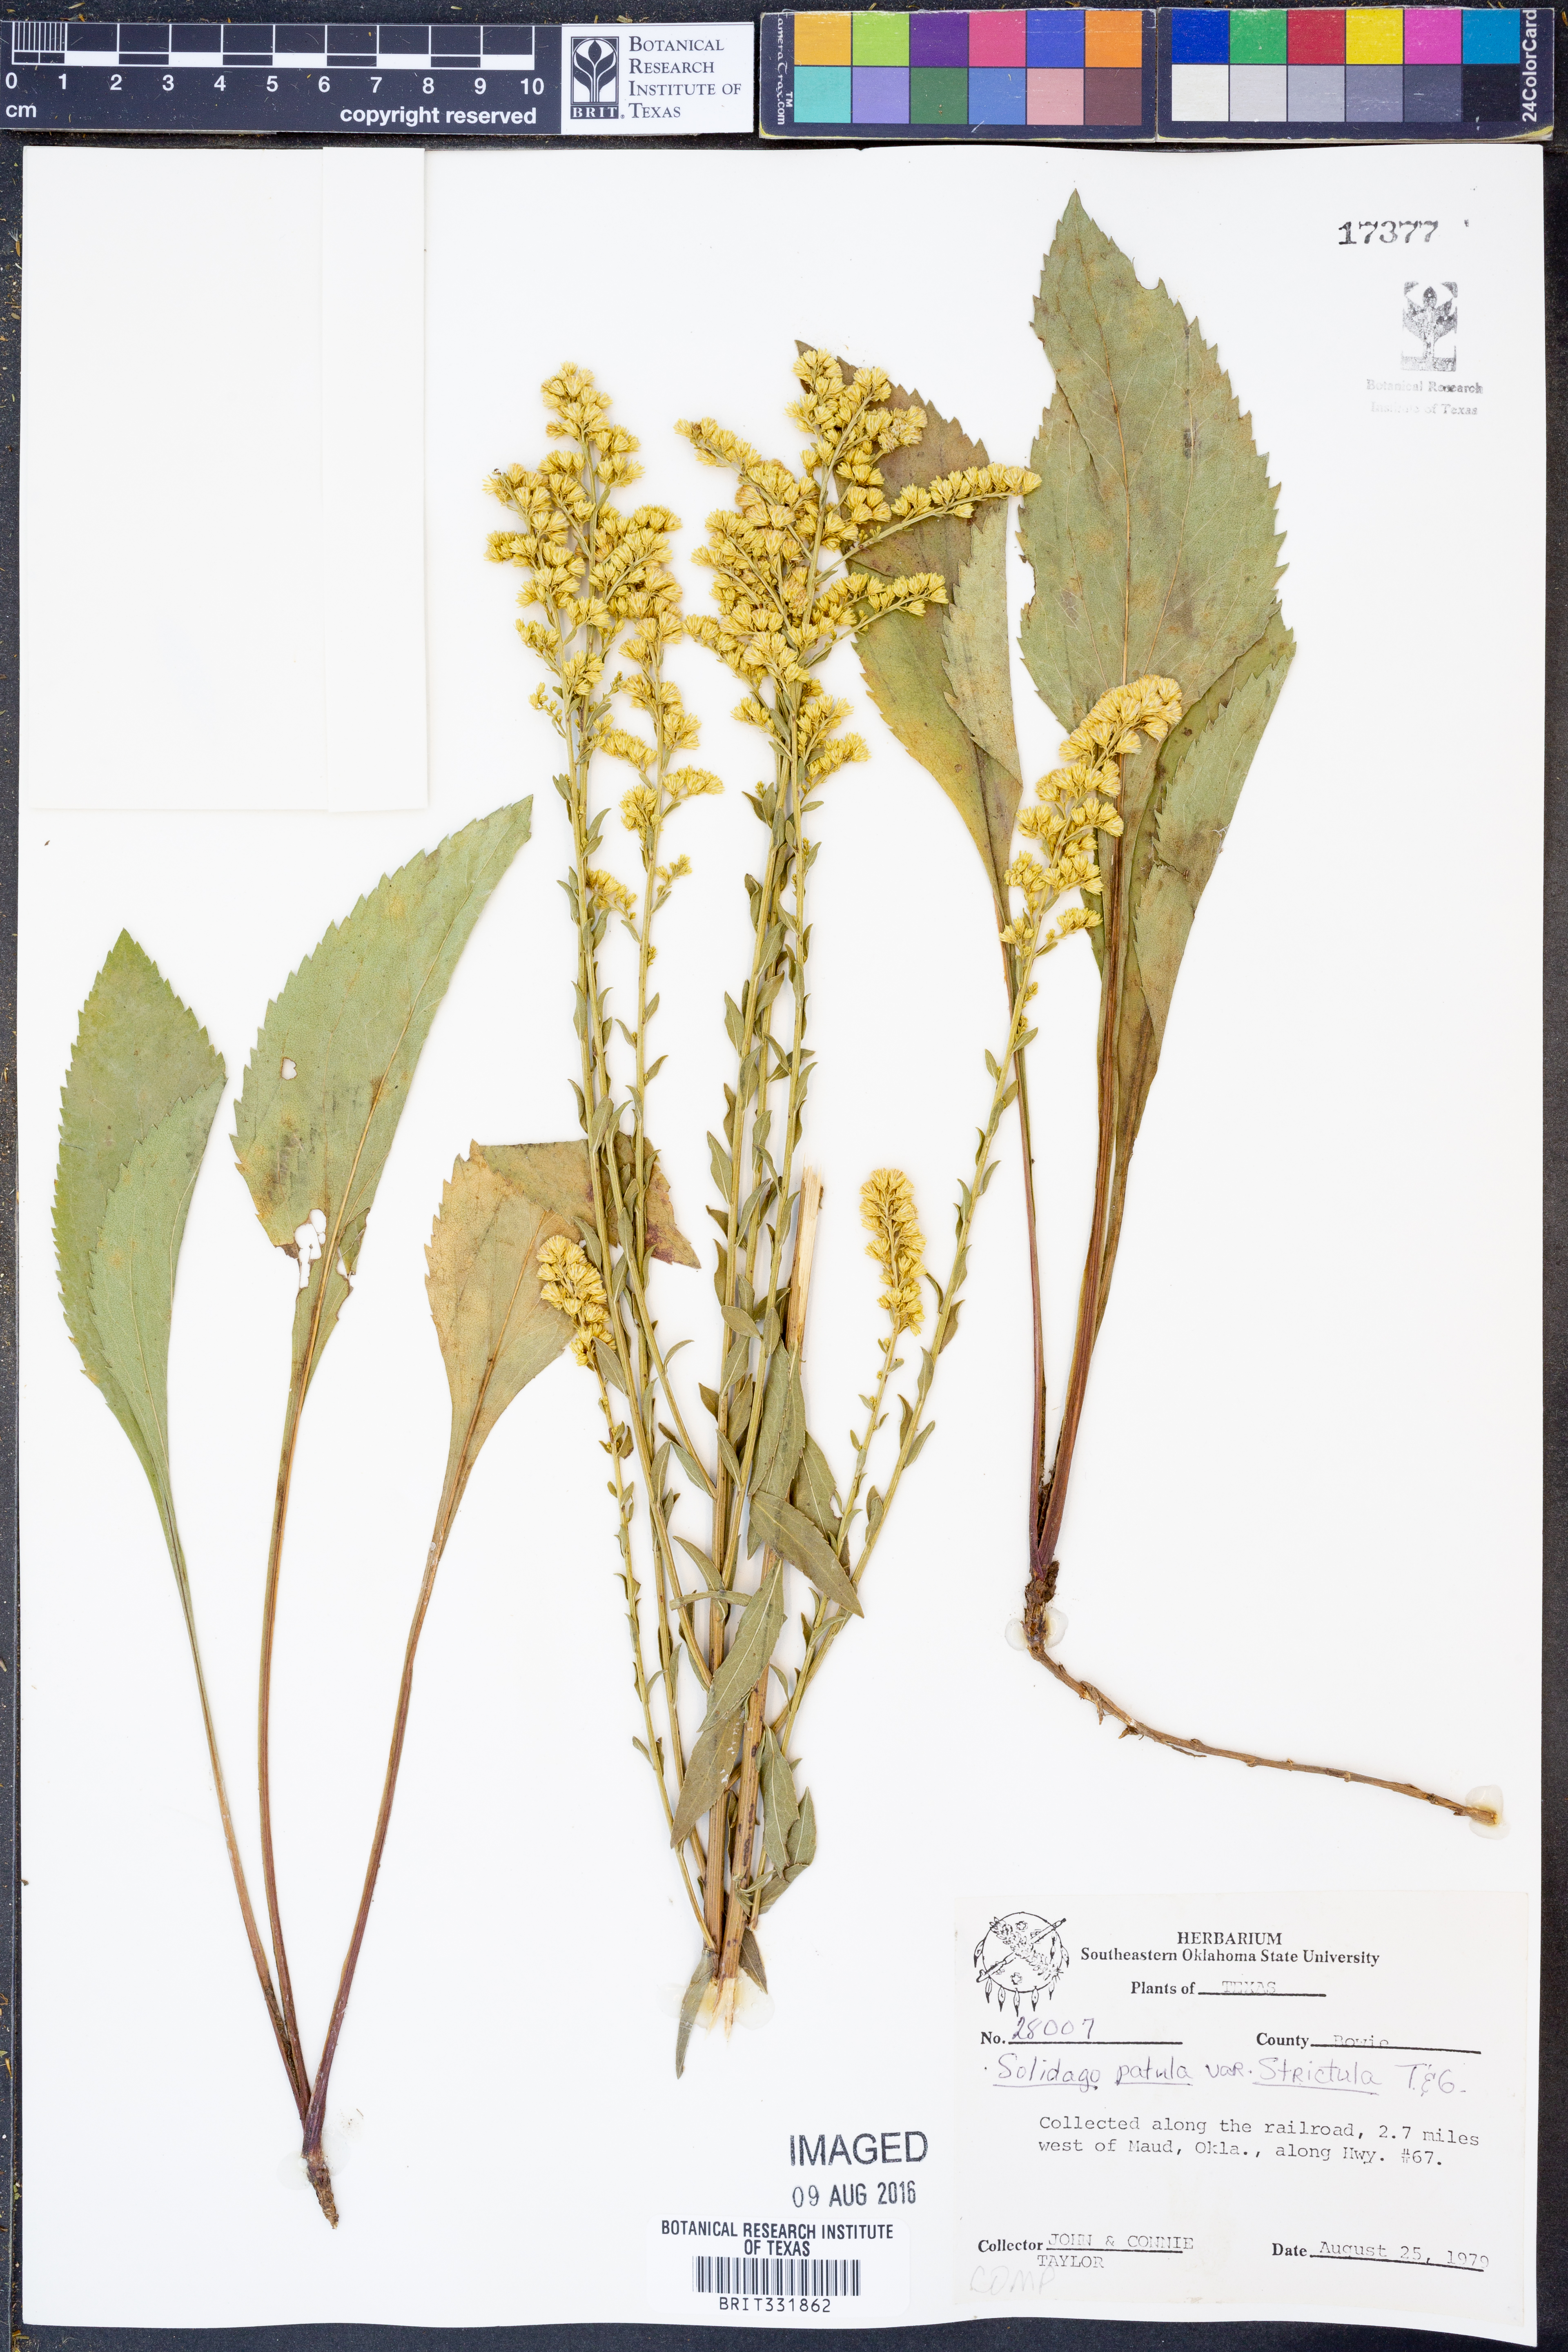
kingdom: Plantae
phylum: Tracheophyta
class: Magnoliopsida
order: Asterales
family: Asteraceae
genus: Solidago
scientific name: Solidago salicina
